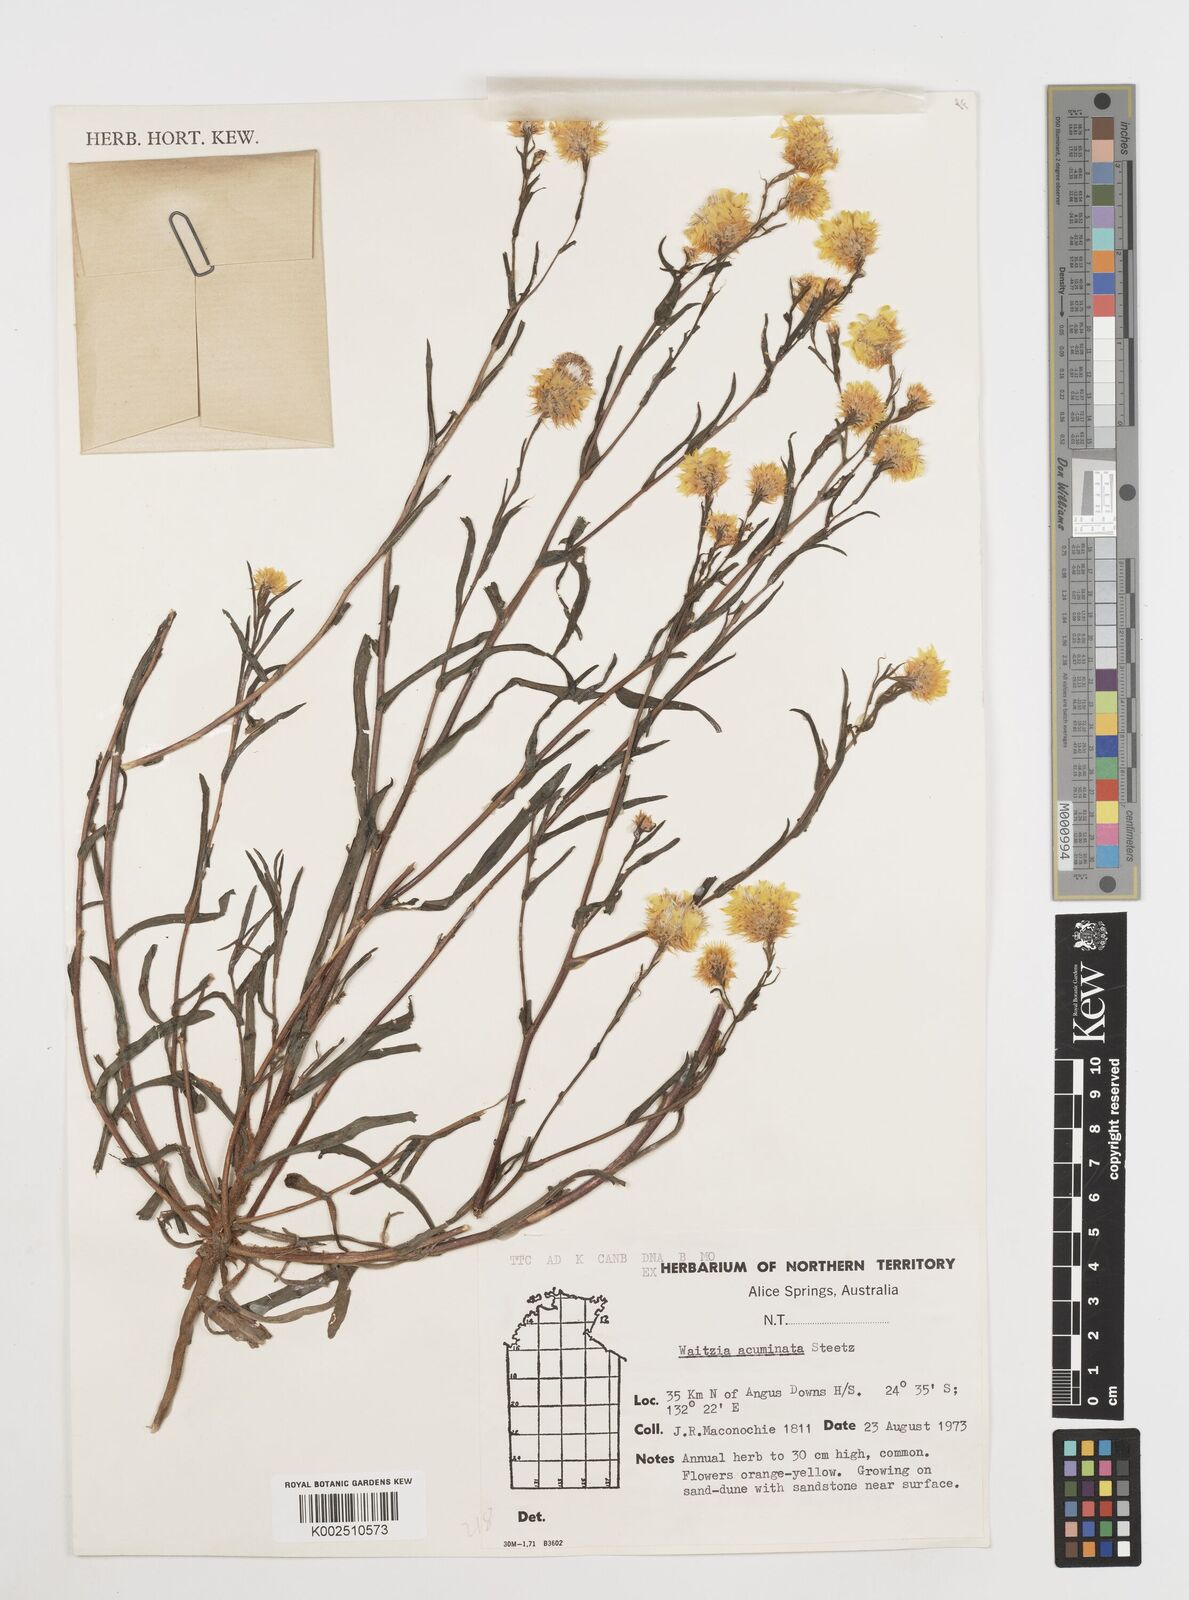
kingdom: Plantae
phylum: Tracheophyta
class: Magnoliopsida
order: Asterales
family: Asteraceae
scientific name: Asteraceae
